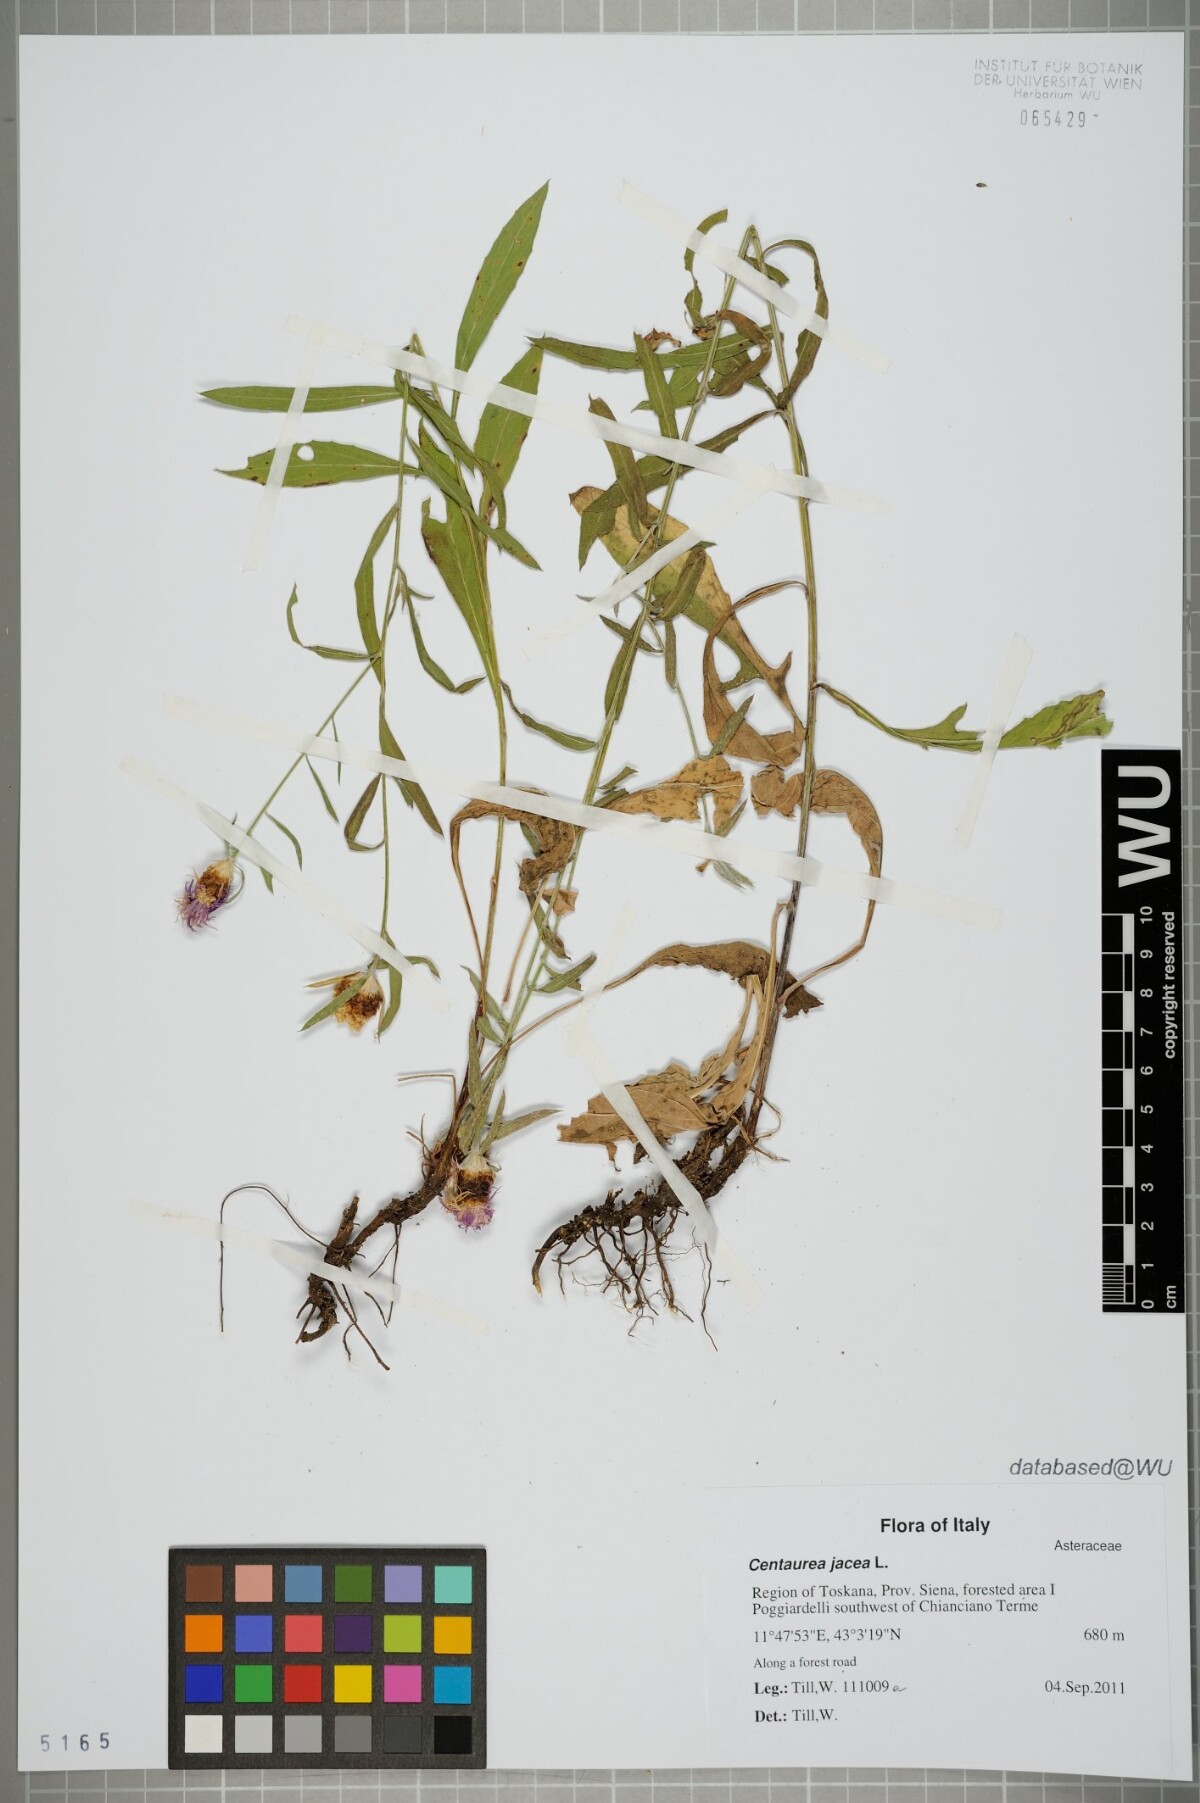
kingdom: Plantae
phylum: Tracheophyta
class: Magnoliopsida
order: Asterales
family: Asteraceae
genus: Centaurea
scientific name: Centaurea jacea
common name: Brown knapweed
